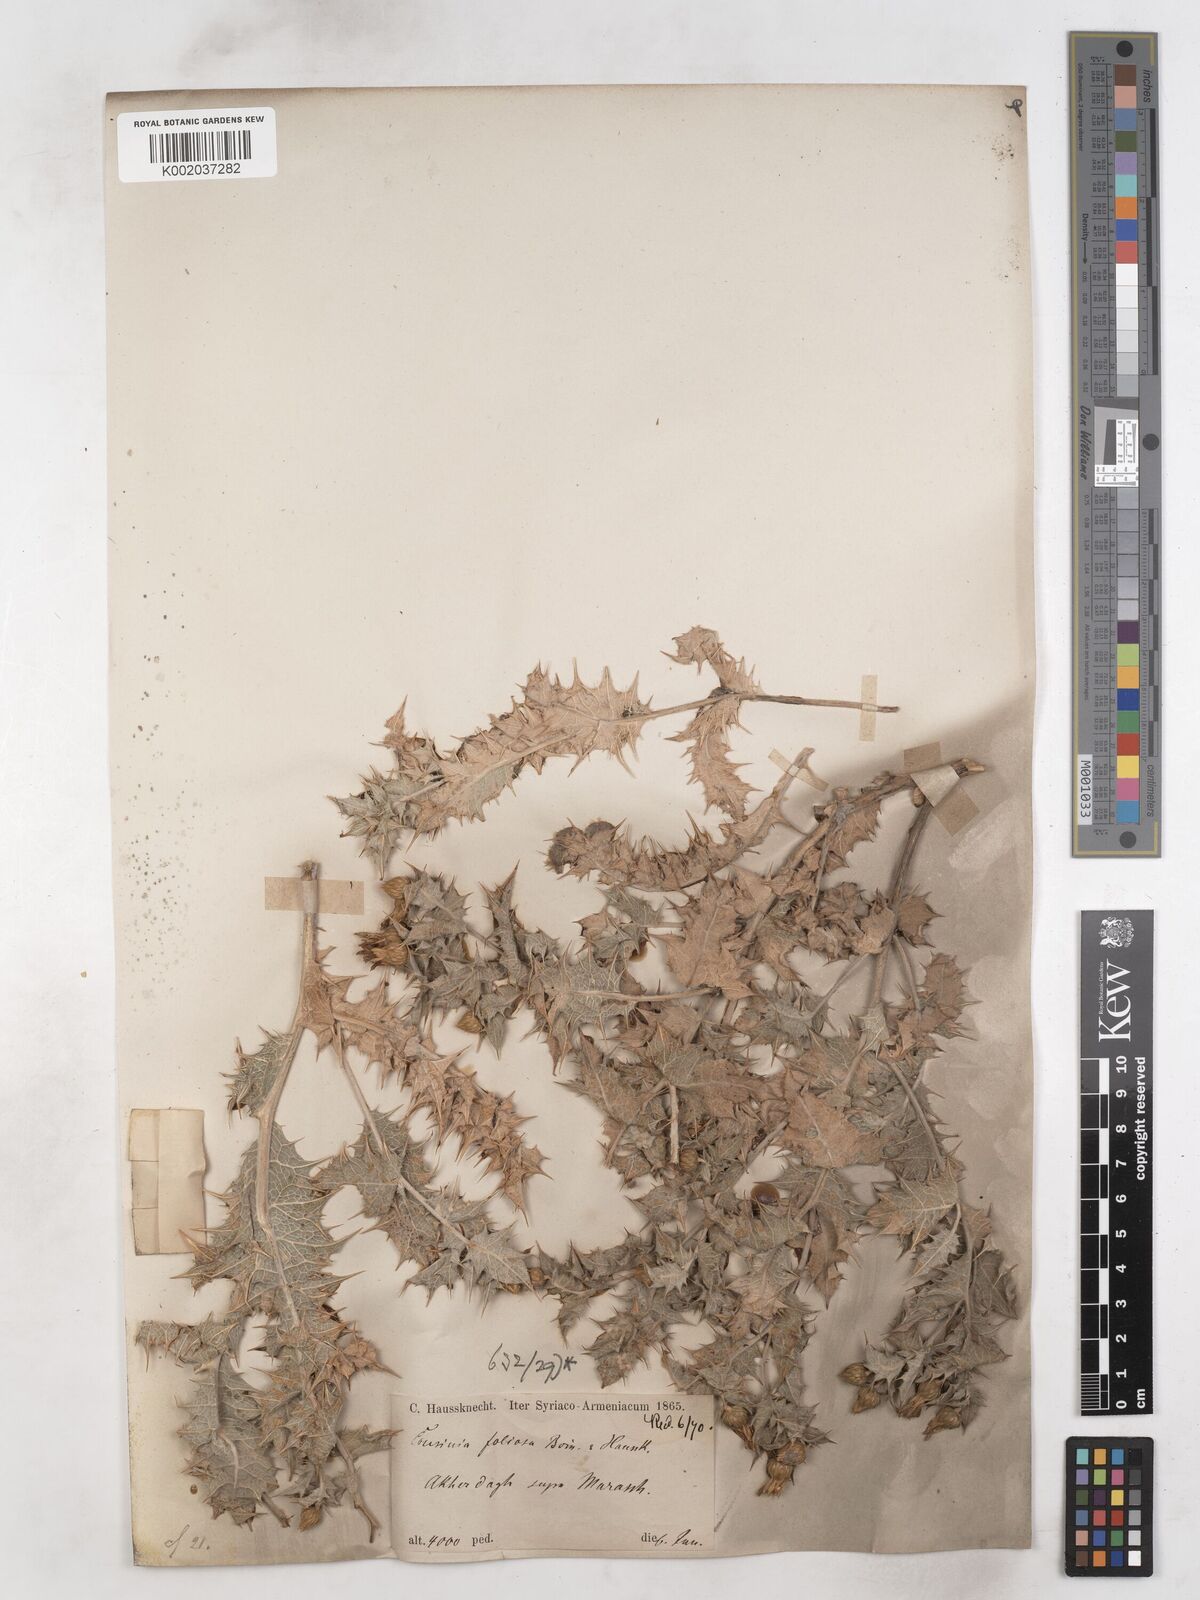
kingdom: Plantae
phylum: Tracheophyta
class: Magnoliopsida
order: Asterales
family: Asteraceae
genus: Cousinia
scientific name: Cousinia foliosa
